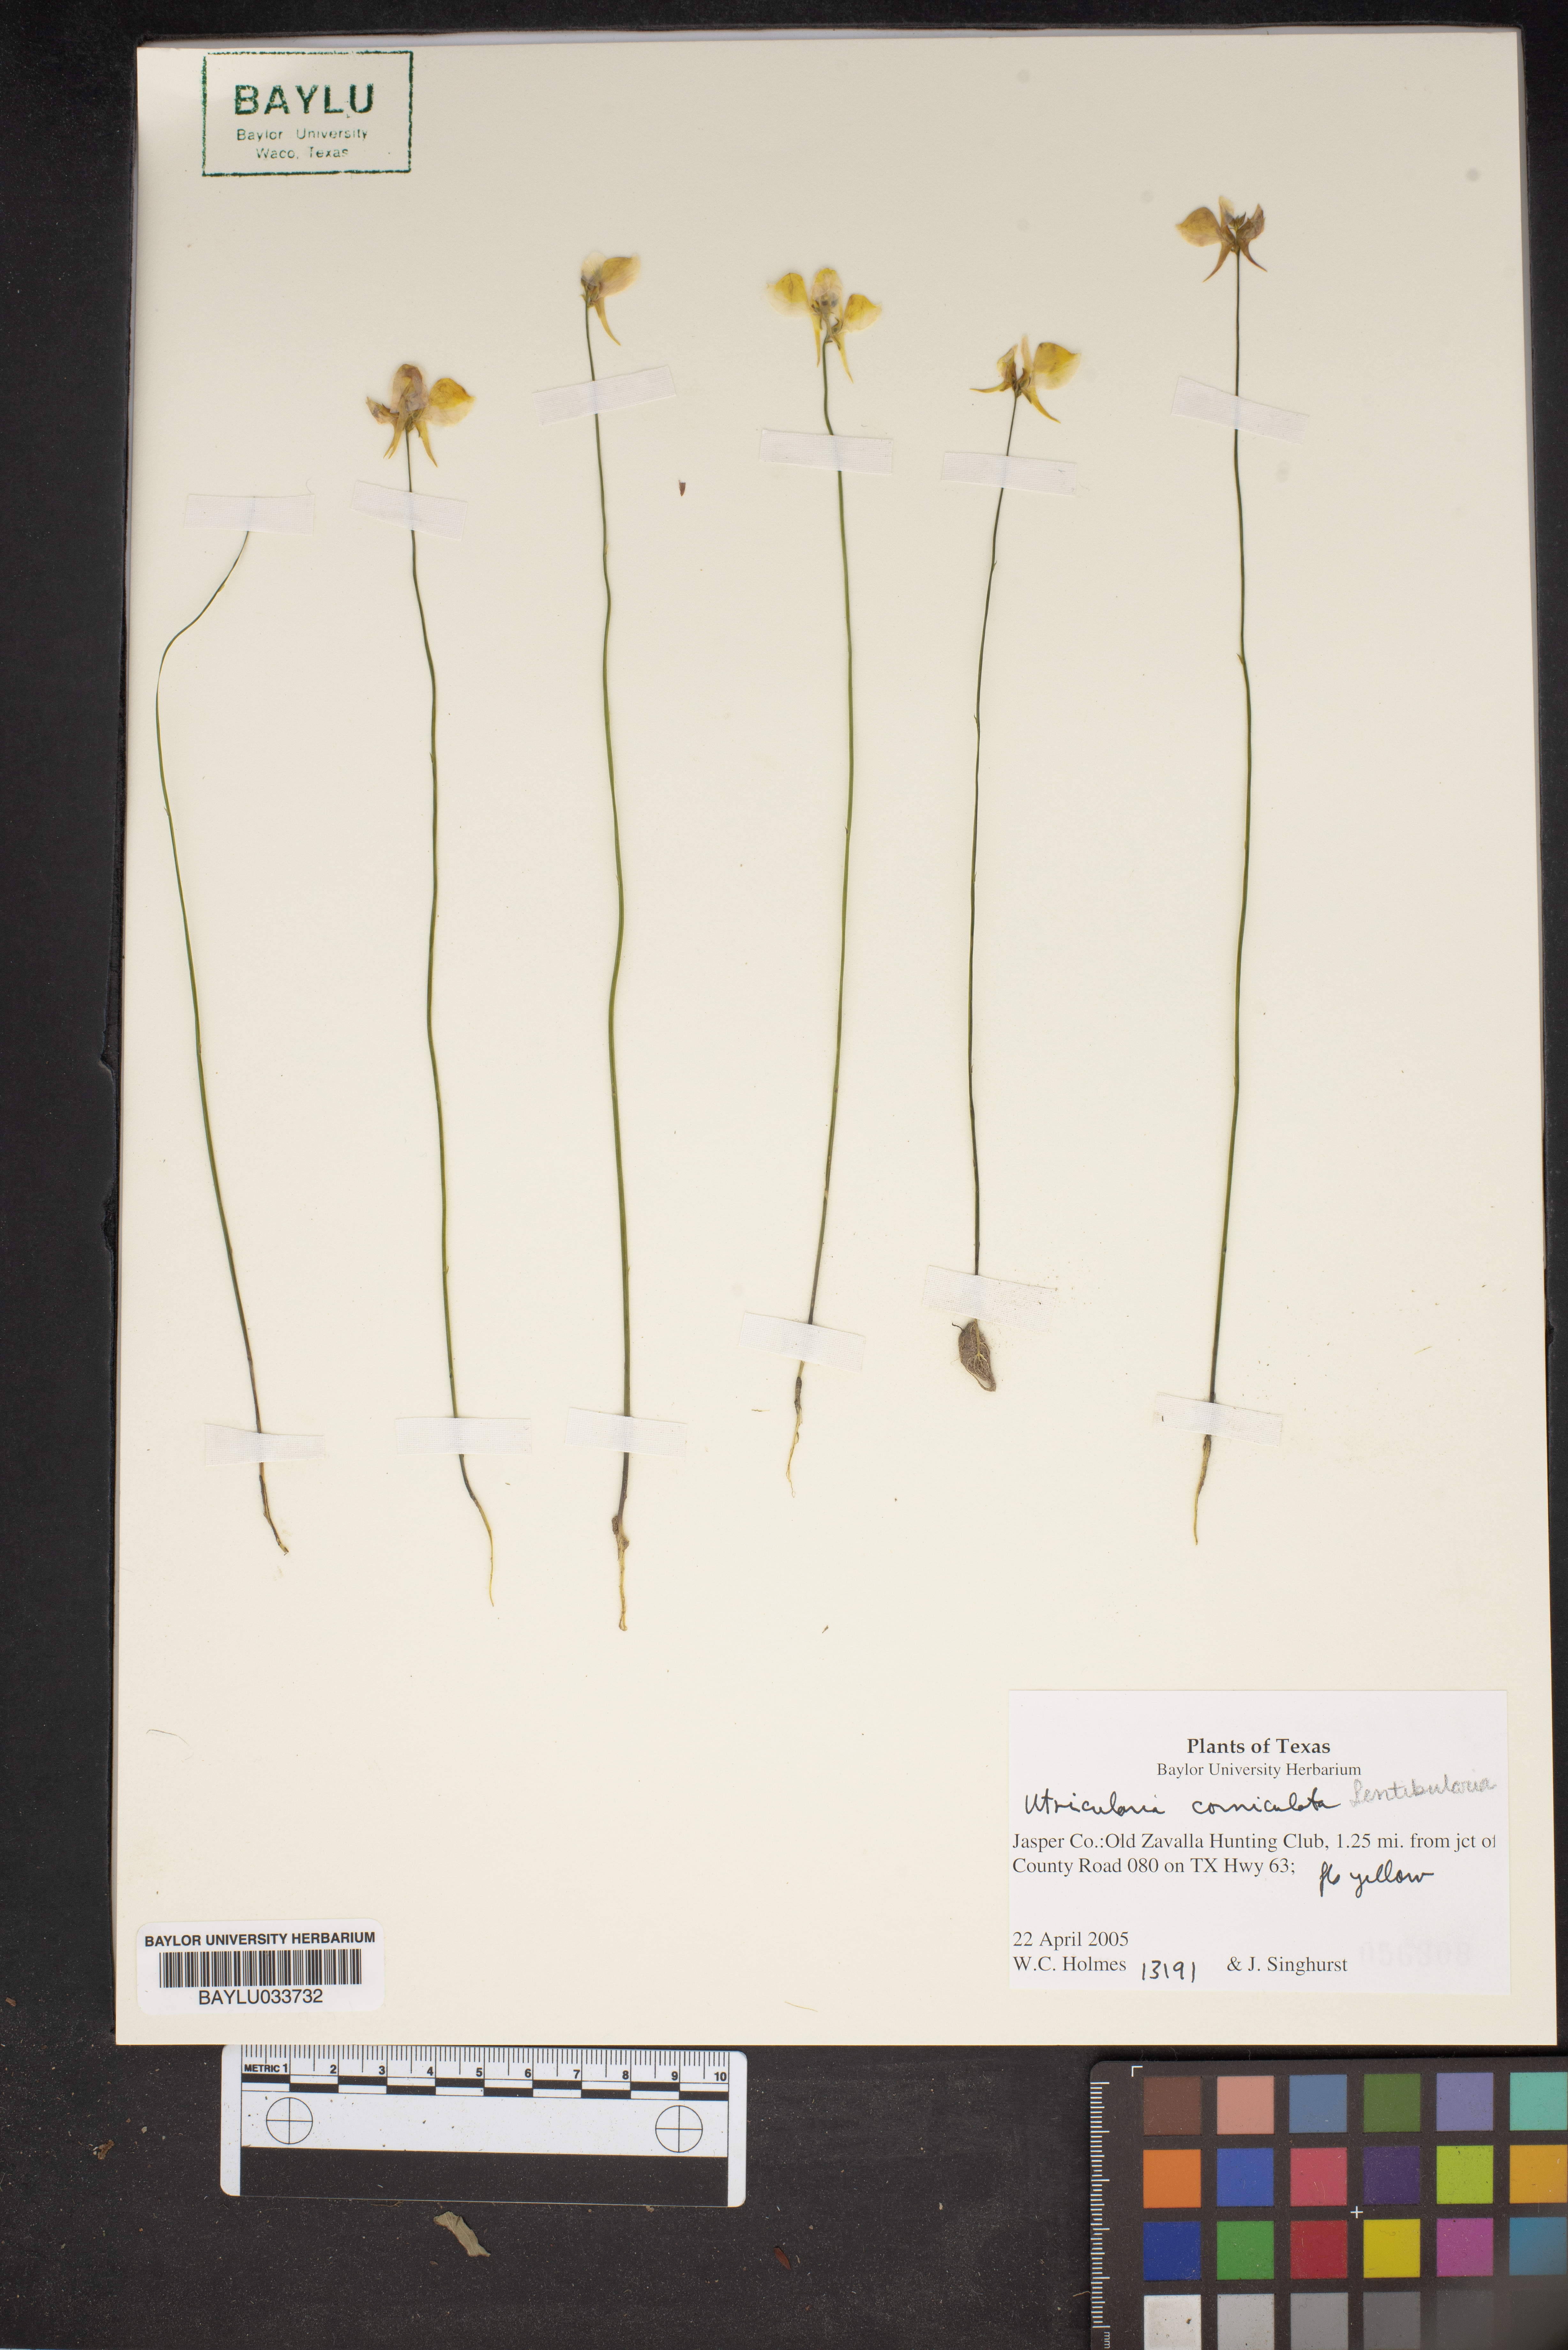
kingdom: Plantae
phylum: Tracheophyta
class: Magnoliopsida
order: Lamiales
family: Lentibulariaceae
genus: Utricularia
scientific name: Utricularia cucullata
